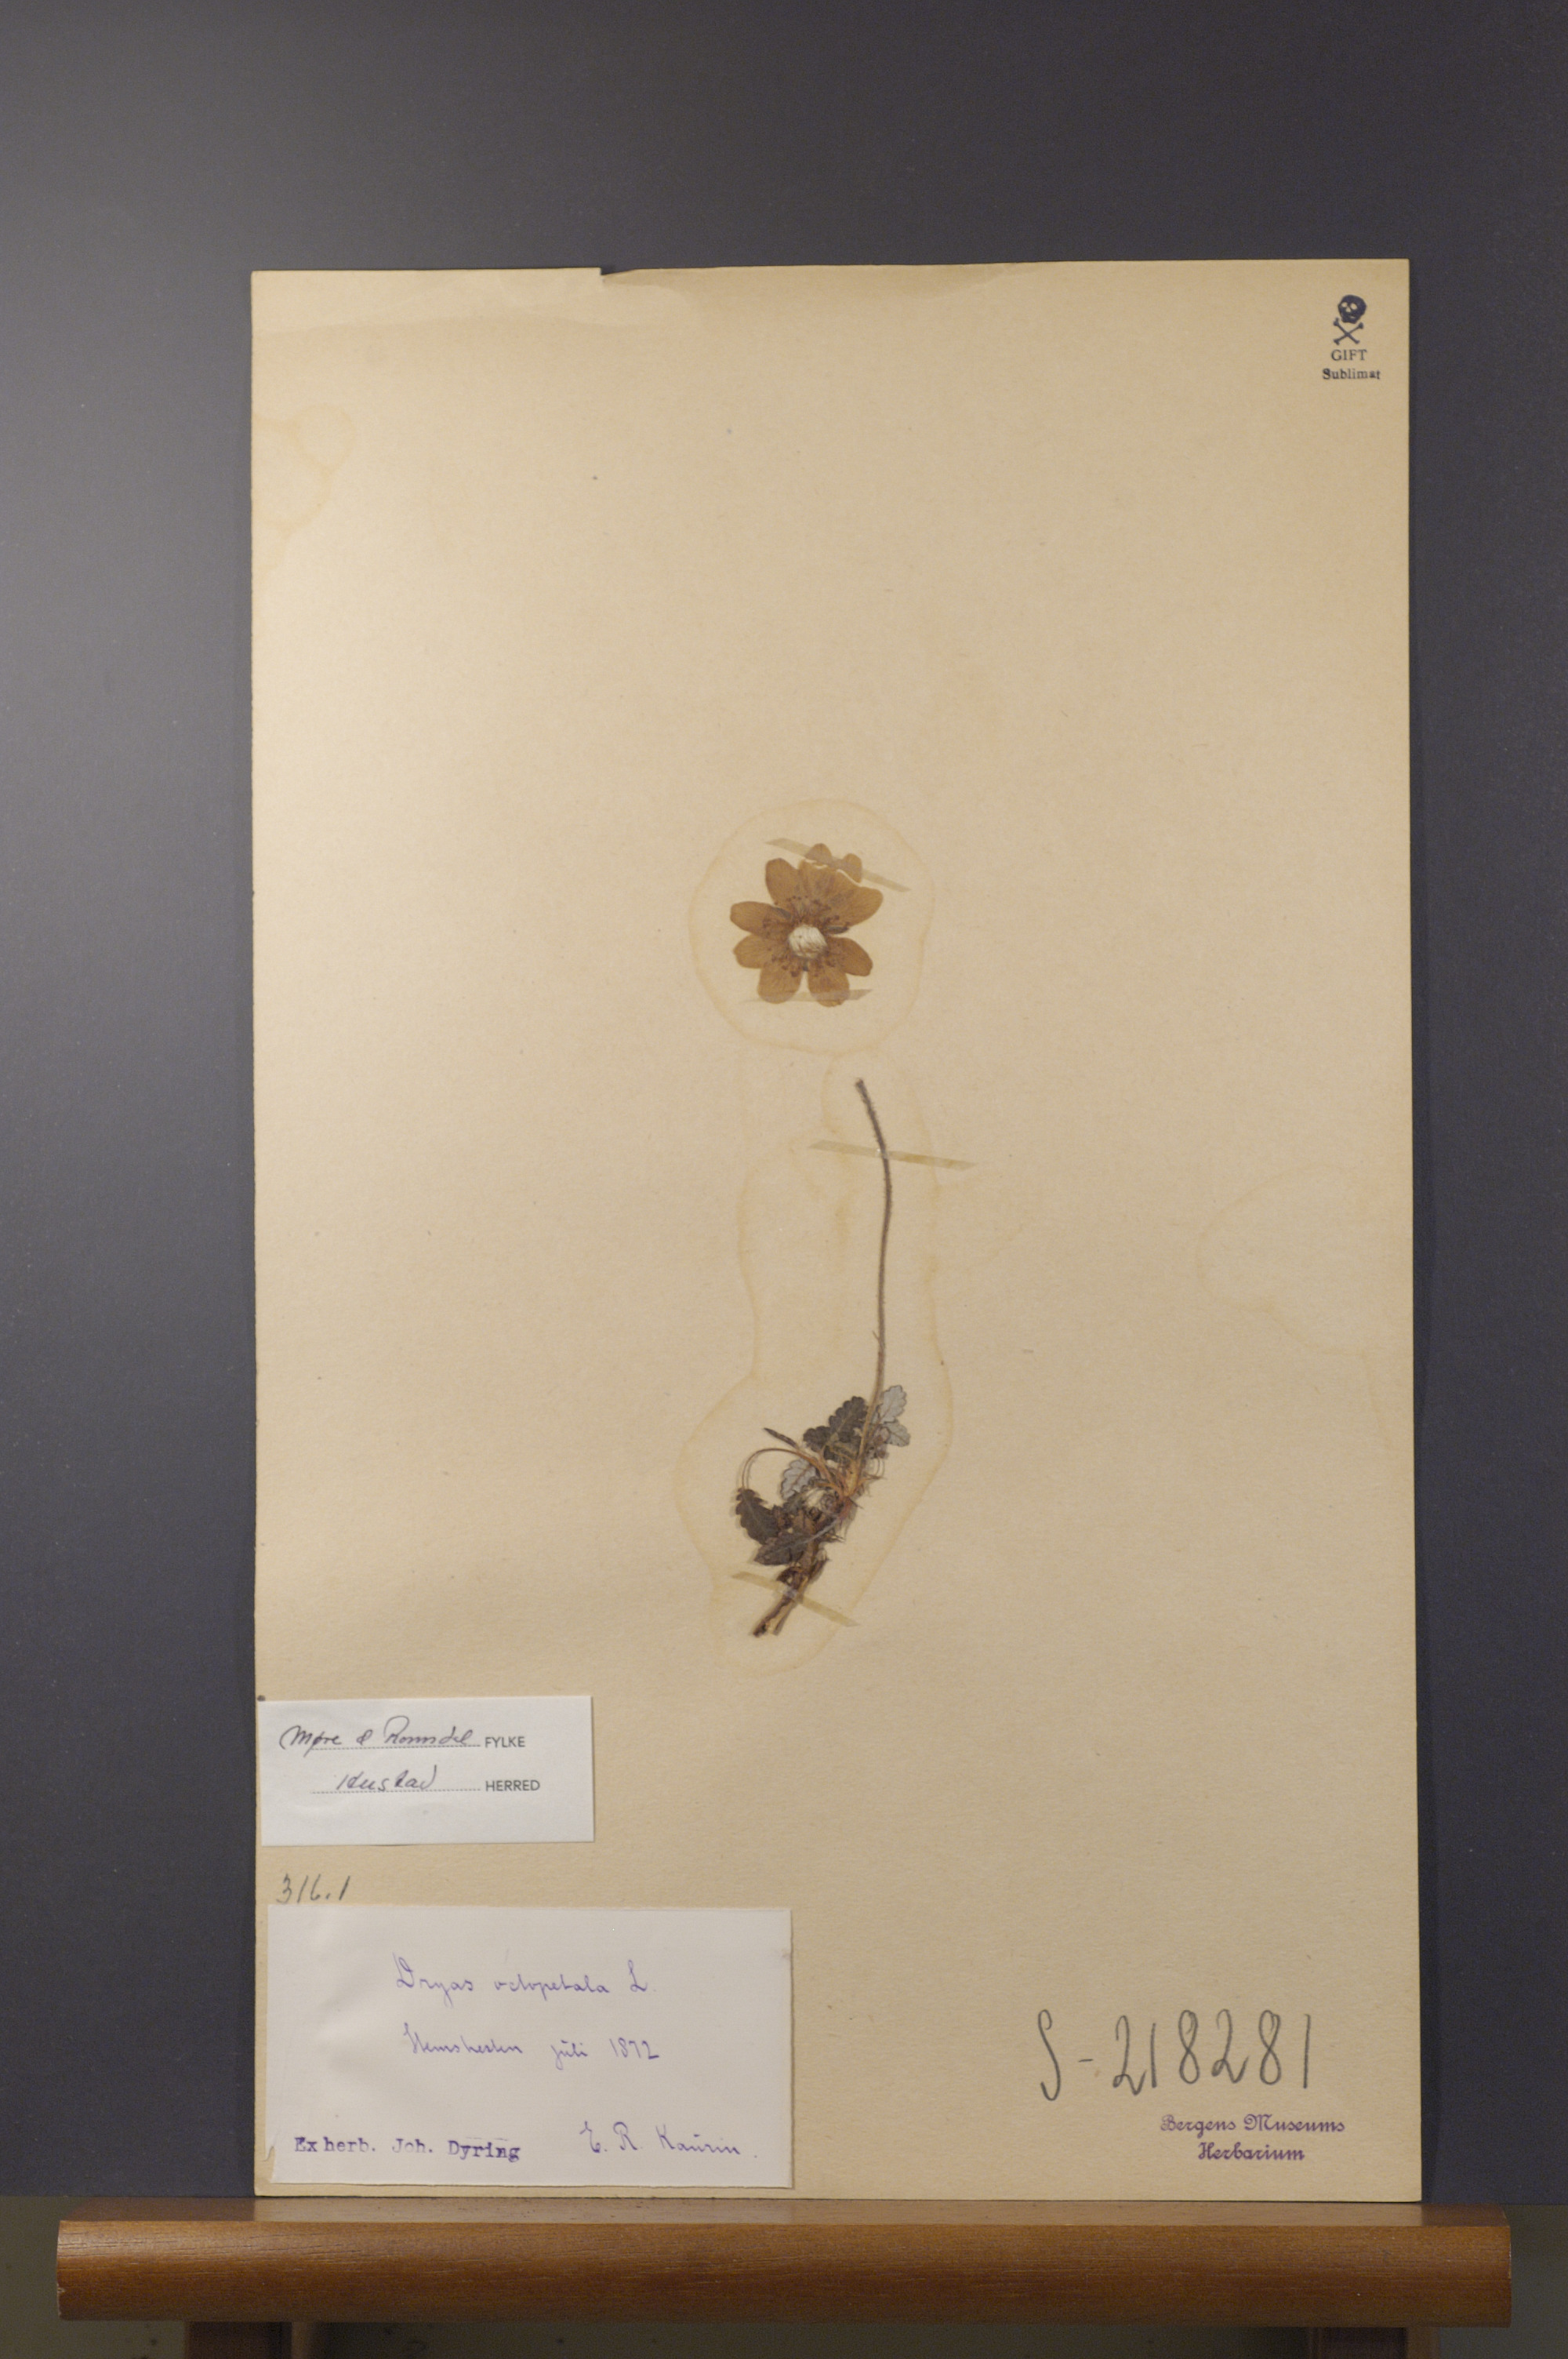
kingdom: Plantae
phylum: Tracheophyta
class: Magnoliopsida
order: Rosales
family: Rosaceae
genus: Dryas
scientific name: Dryas octopetala
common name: Eight-petal mountain-avens
